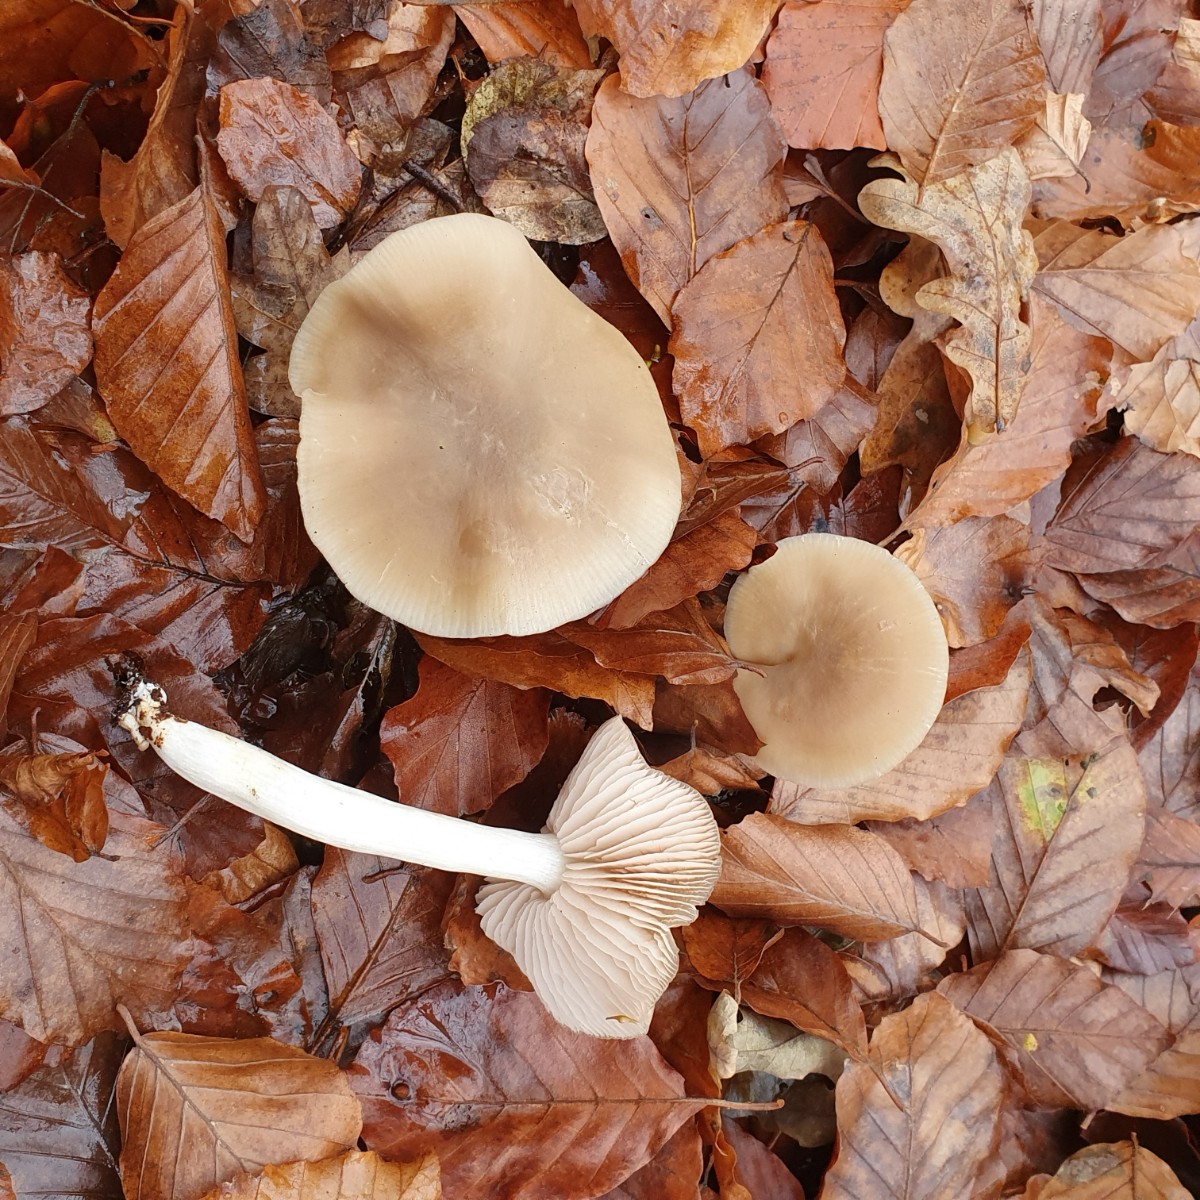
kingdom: Fungi
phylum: Basidiomycota
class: Agaricomycetes
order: Agaricales
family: Entolomataceae
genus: Entoloma
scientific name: Entoloma rhodopolium
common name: skov-rødblad
